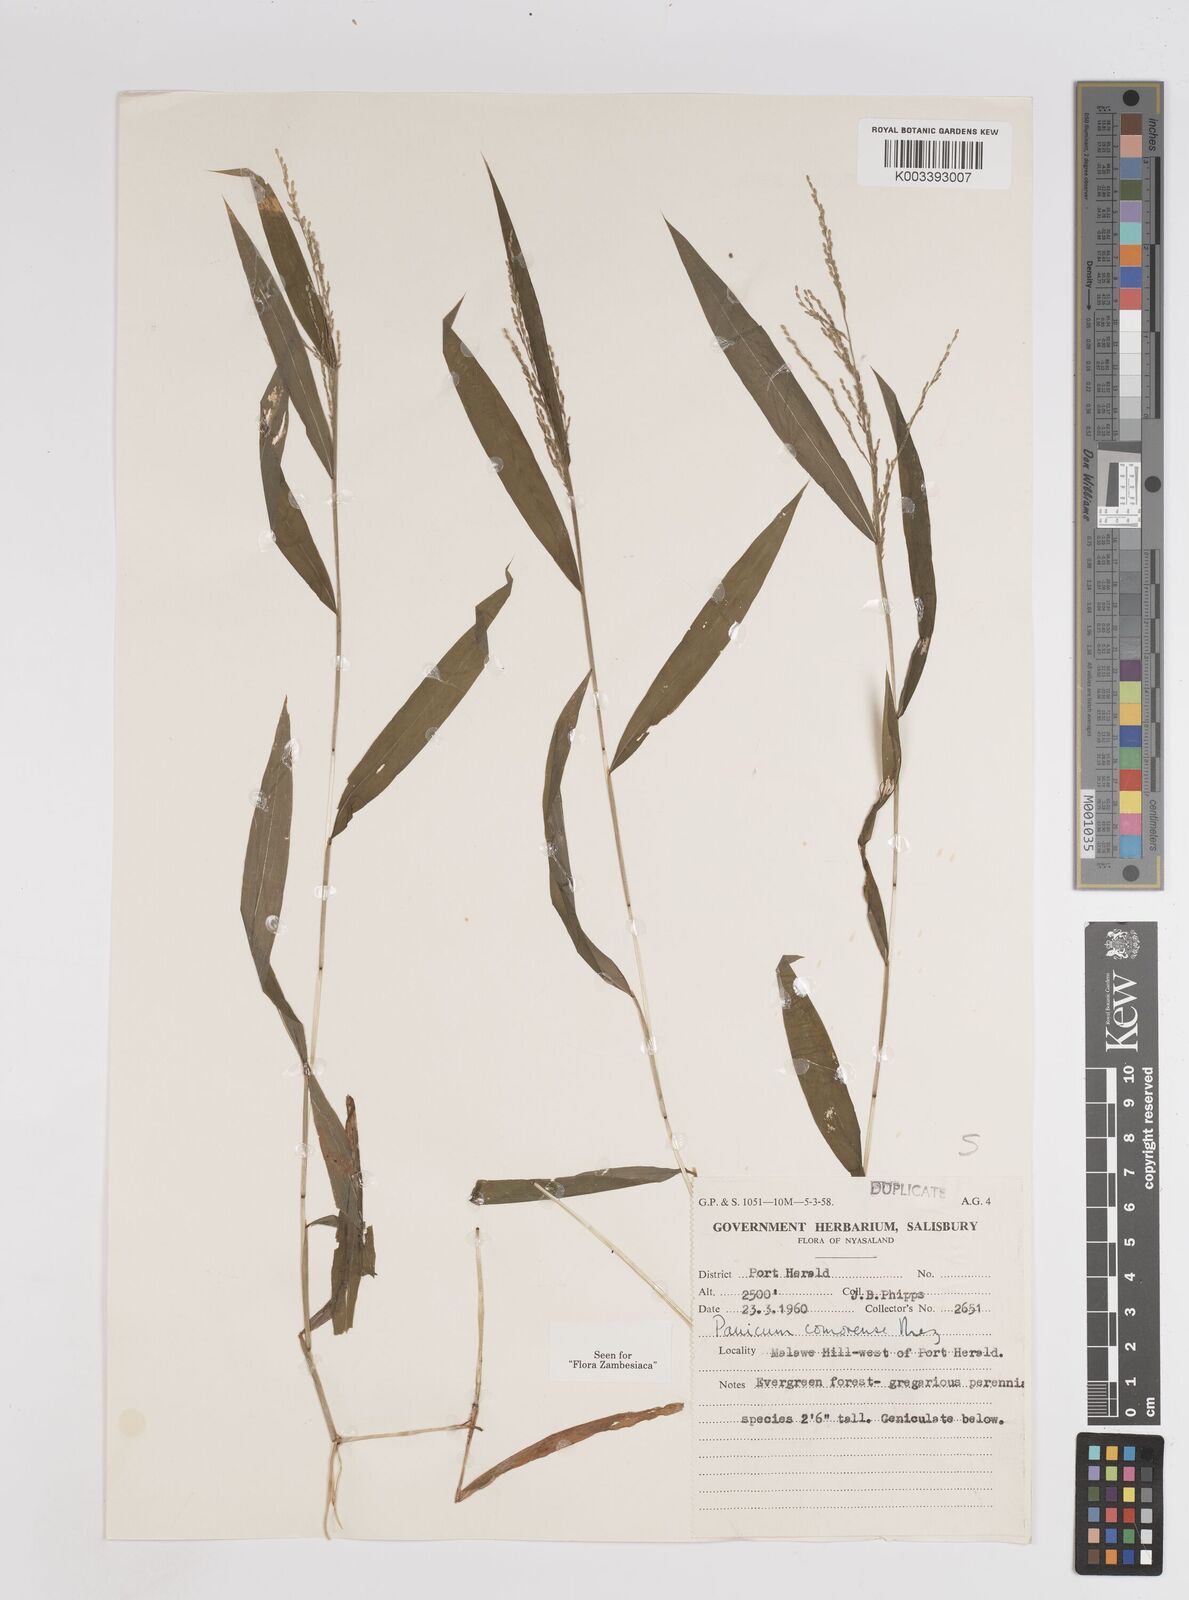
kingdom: Plantae
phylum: Tracheophyta
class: Liliopsida
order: Poales
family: Poaceae
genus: Panicum
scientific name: Panicum comorense
